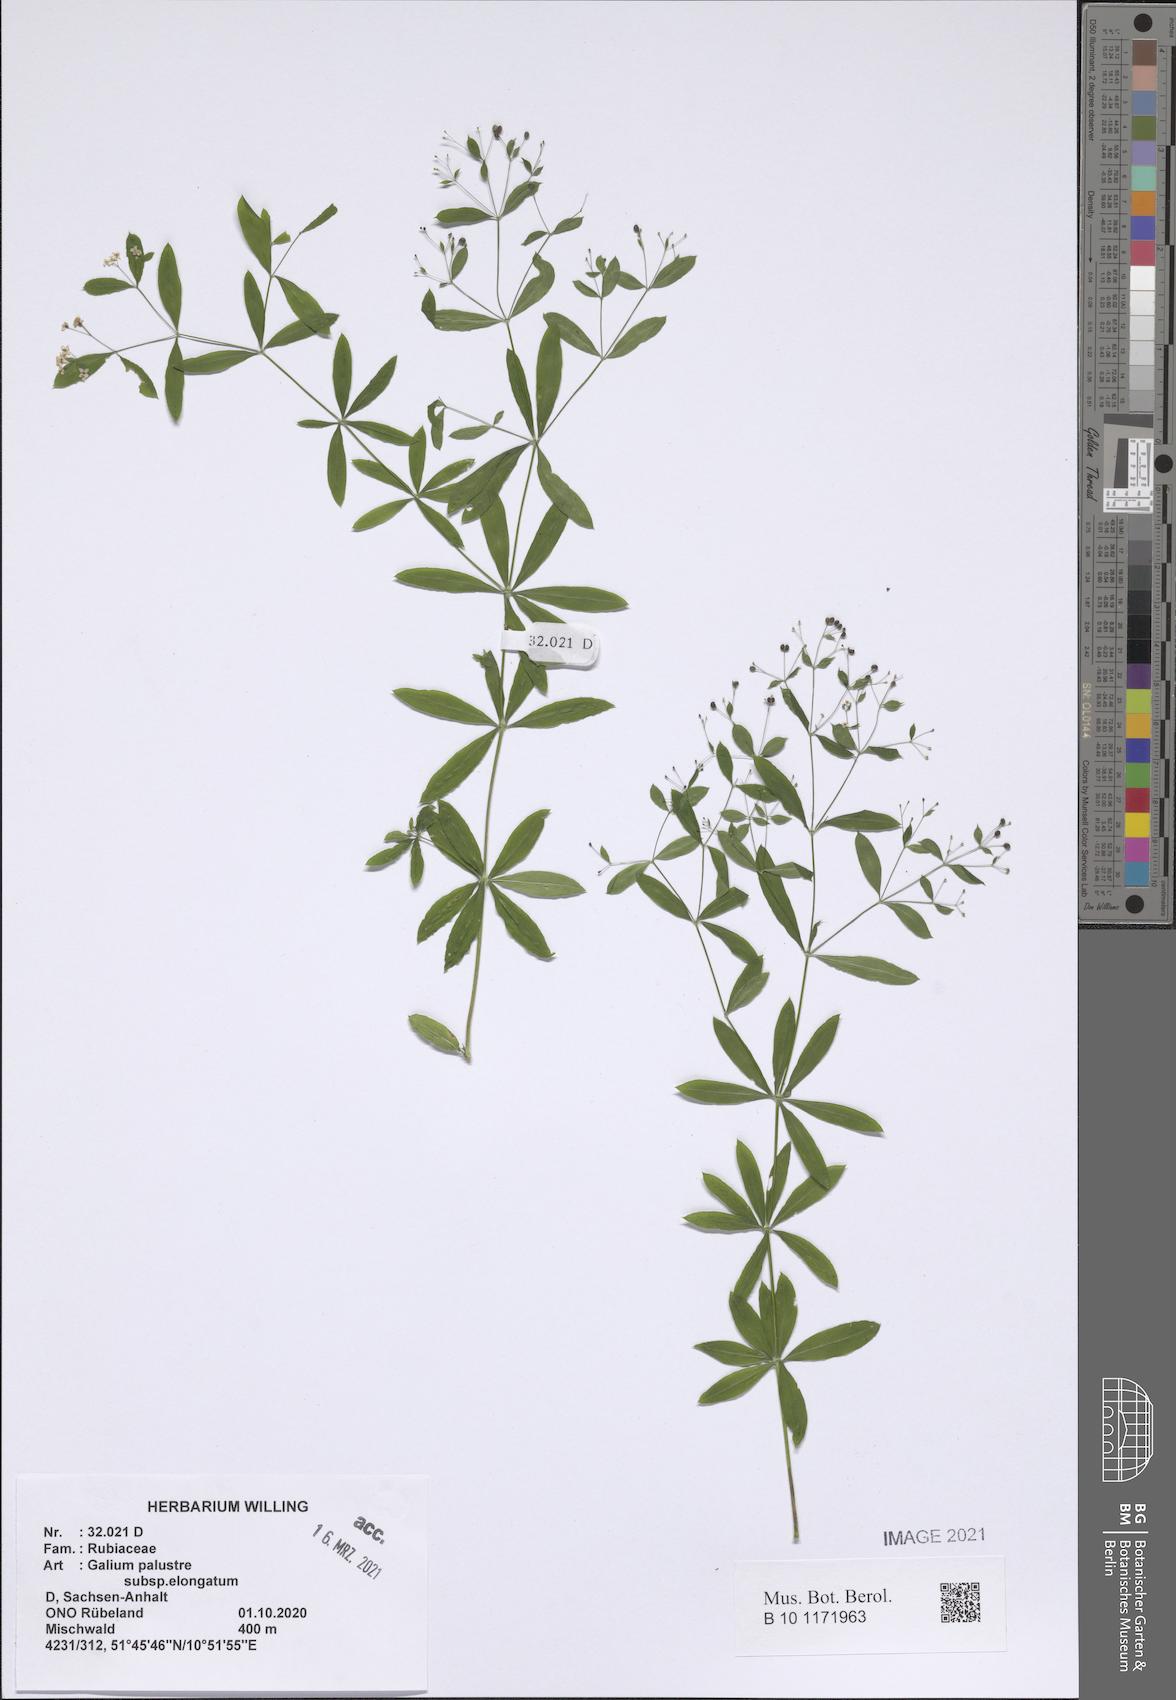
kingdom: Plantae
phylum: Tracheophyta
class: Magnoliopsida
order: Gentianales
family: Rubiaceae
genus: Galium
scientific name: Galium elongatum
